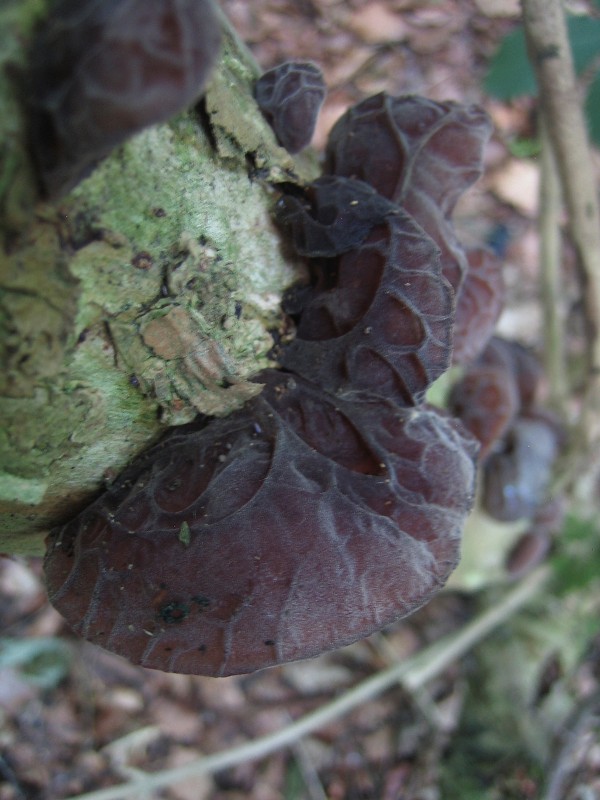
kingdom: Fungi
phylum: Basidiomycota
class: Agaricomycetes
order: Auriculariales
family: Auriculariaceae
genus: Auricularia
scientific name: Auricularia auricula-judae
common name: almindelig judasøre
